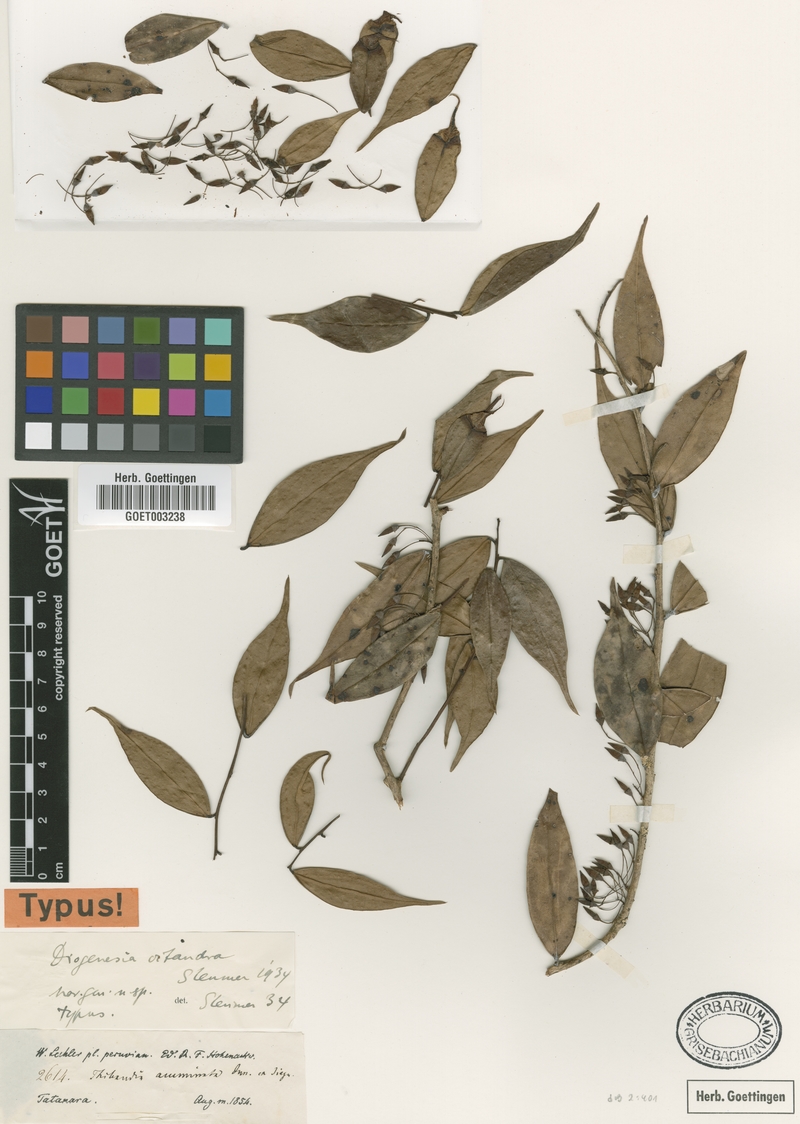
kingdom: Plantae
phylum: Tracheophyta
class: Magnoliopsida
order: Ericales
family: Ericaceae
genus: Diogenesia
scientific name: Diogenesia octandra
